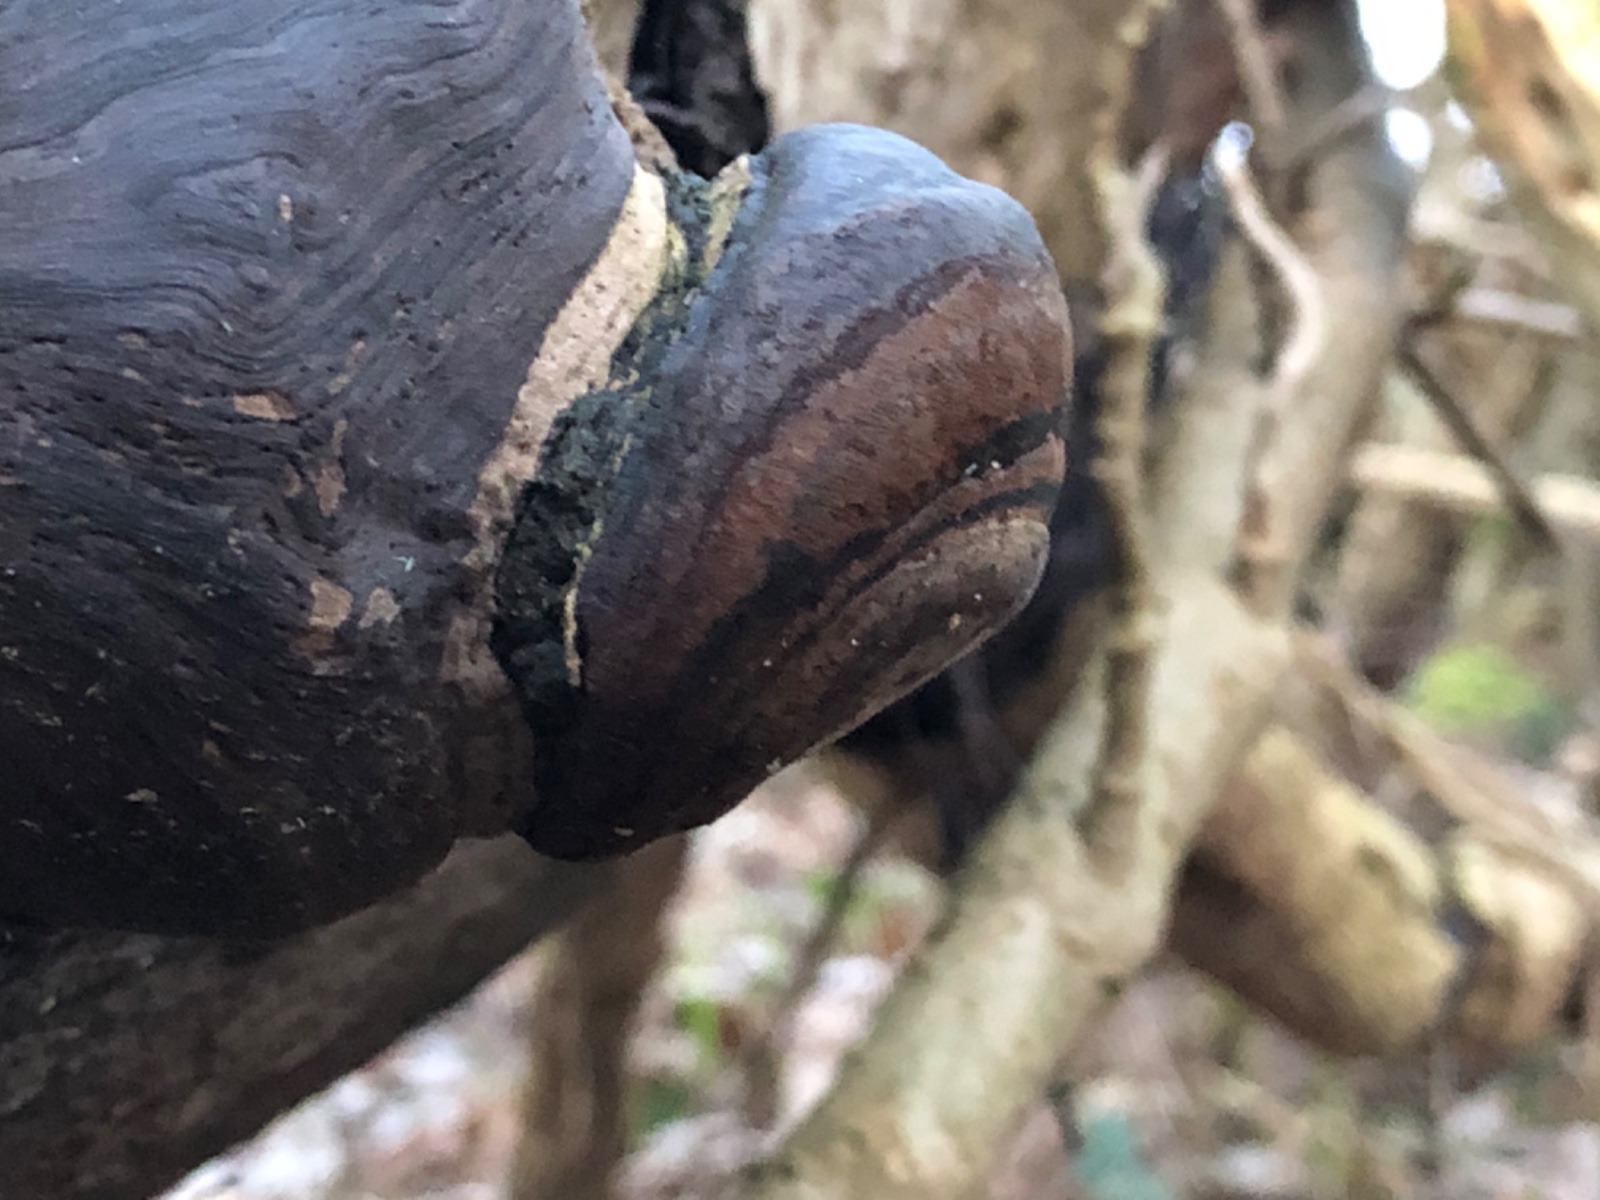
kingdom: Fungi
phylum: Basidiomycota
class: Agaricomycetes
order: Hymenochaetales
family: Hymenochaetaceae
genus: Phellinus
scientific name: Phellinus tremulae
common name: aspe-ildporesvamp
